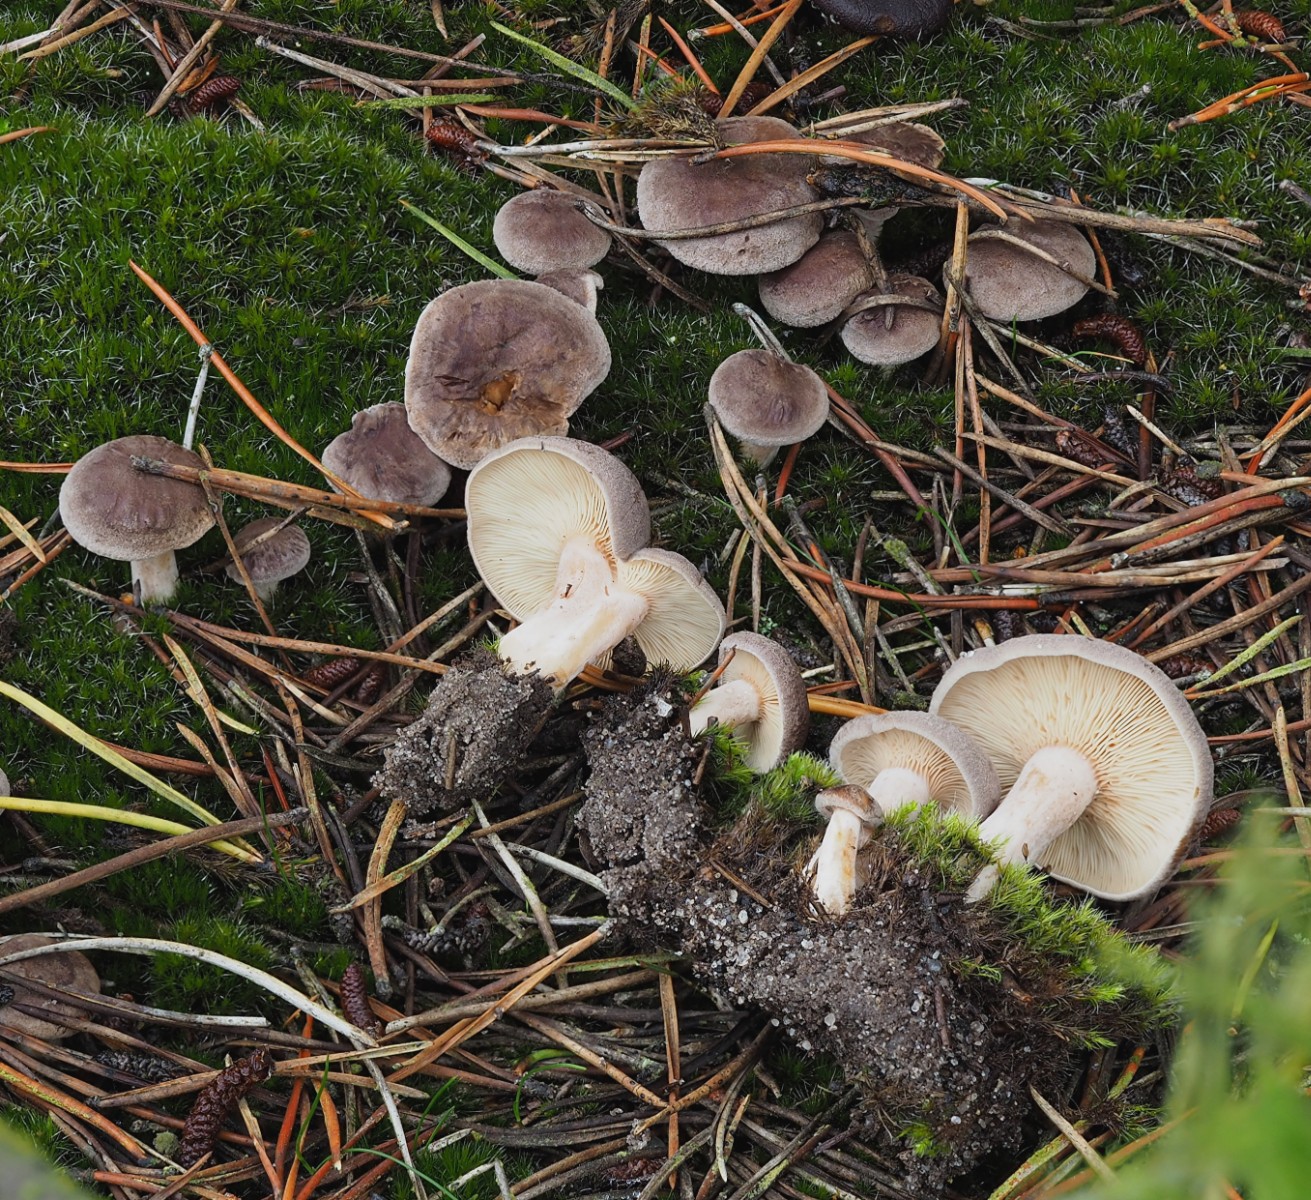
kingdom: Fungi
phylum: Basidiomycota
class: Agaricomycetes
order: Russulales
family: Russulaceae
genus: Lactarius
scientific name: Lactarius mammosus
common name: kokosbrun mælkehat
